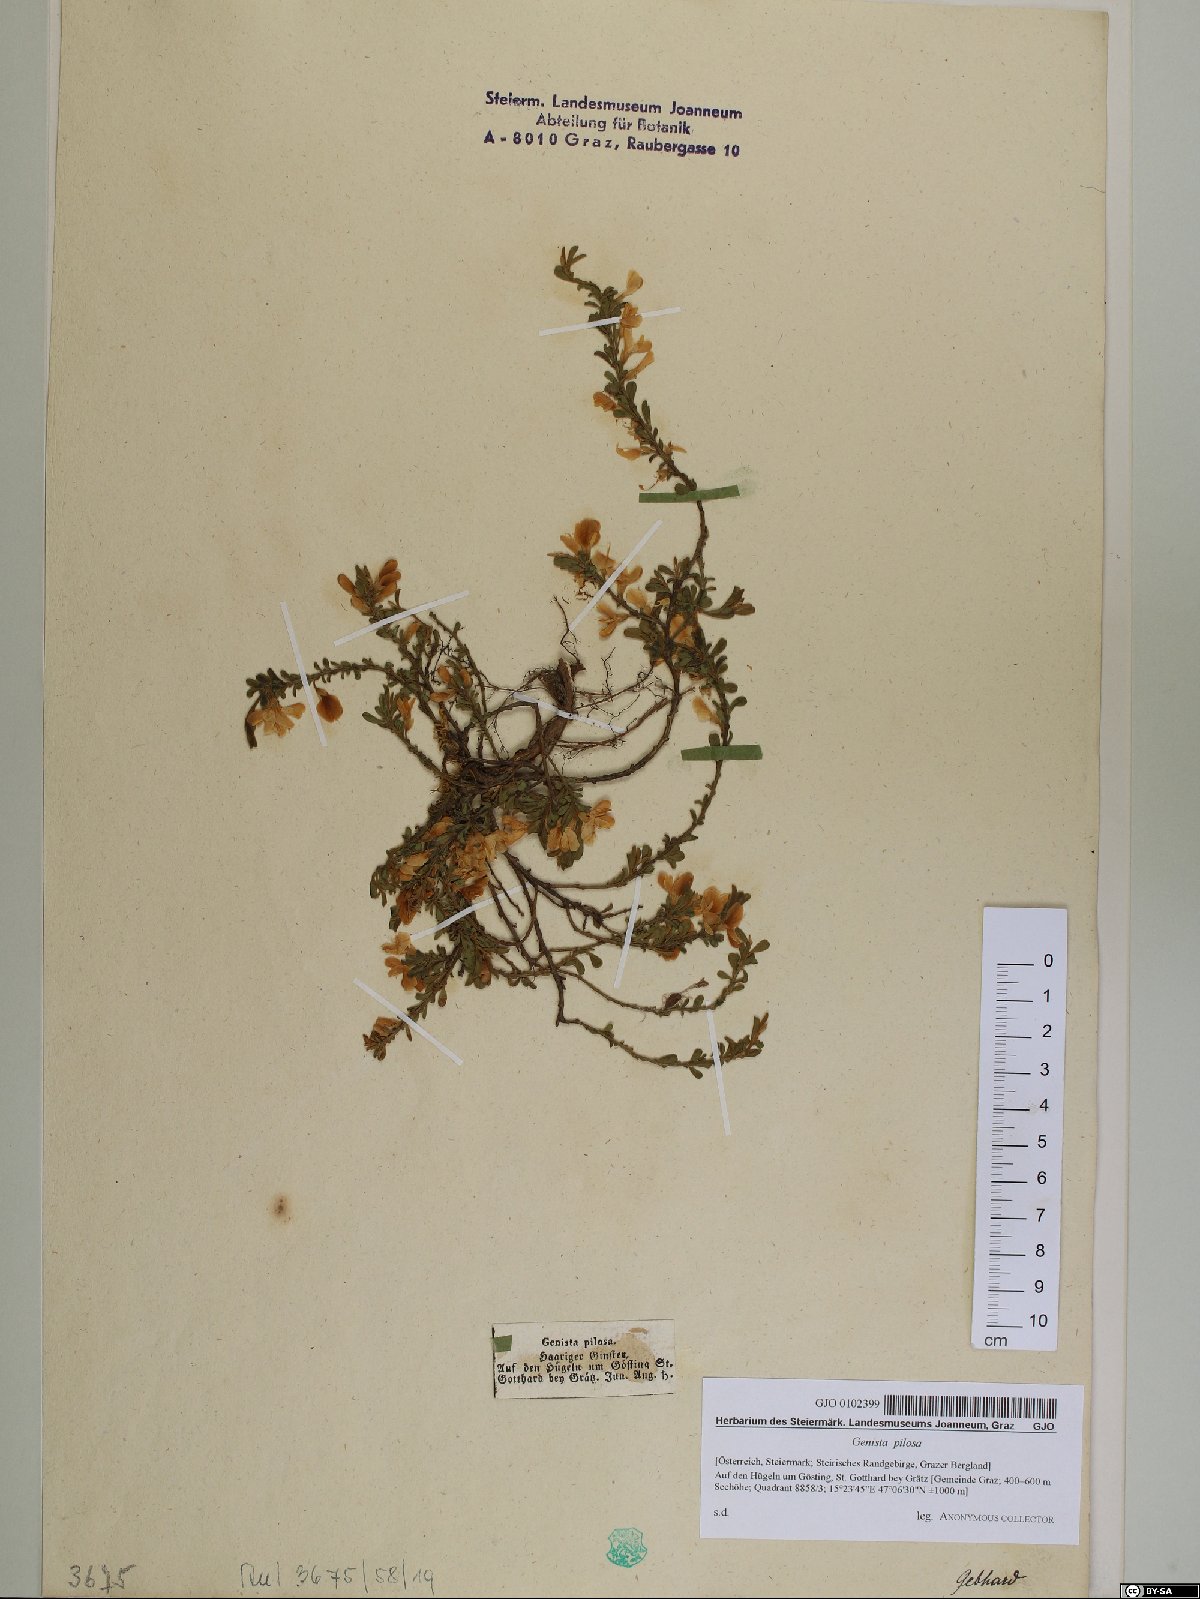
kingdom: Plantae
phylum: Tracheophyta
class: Magnoliopsida
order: Fabales
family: Fabaceae
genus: Genista
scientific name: Genista pilosa
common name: Hairy greenweed
